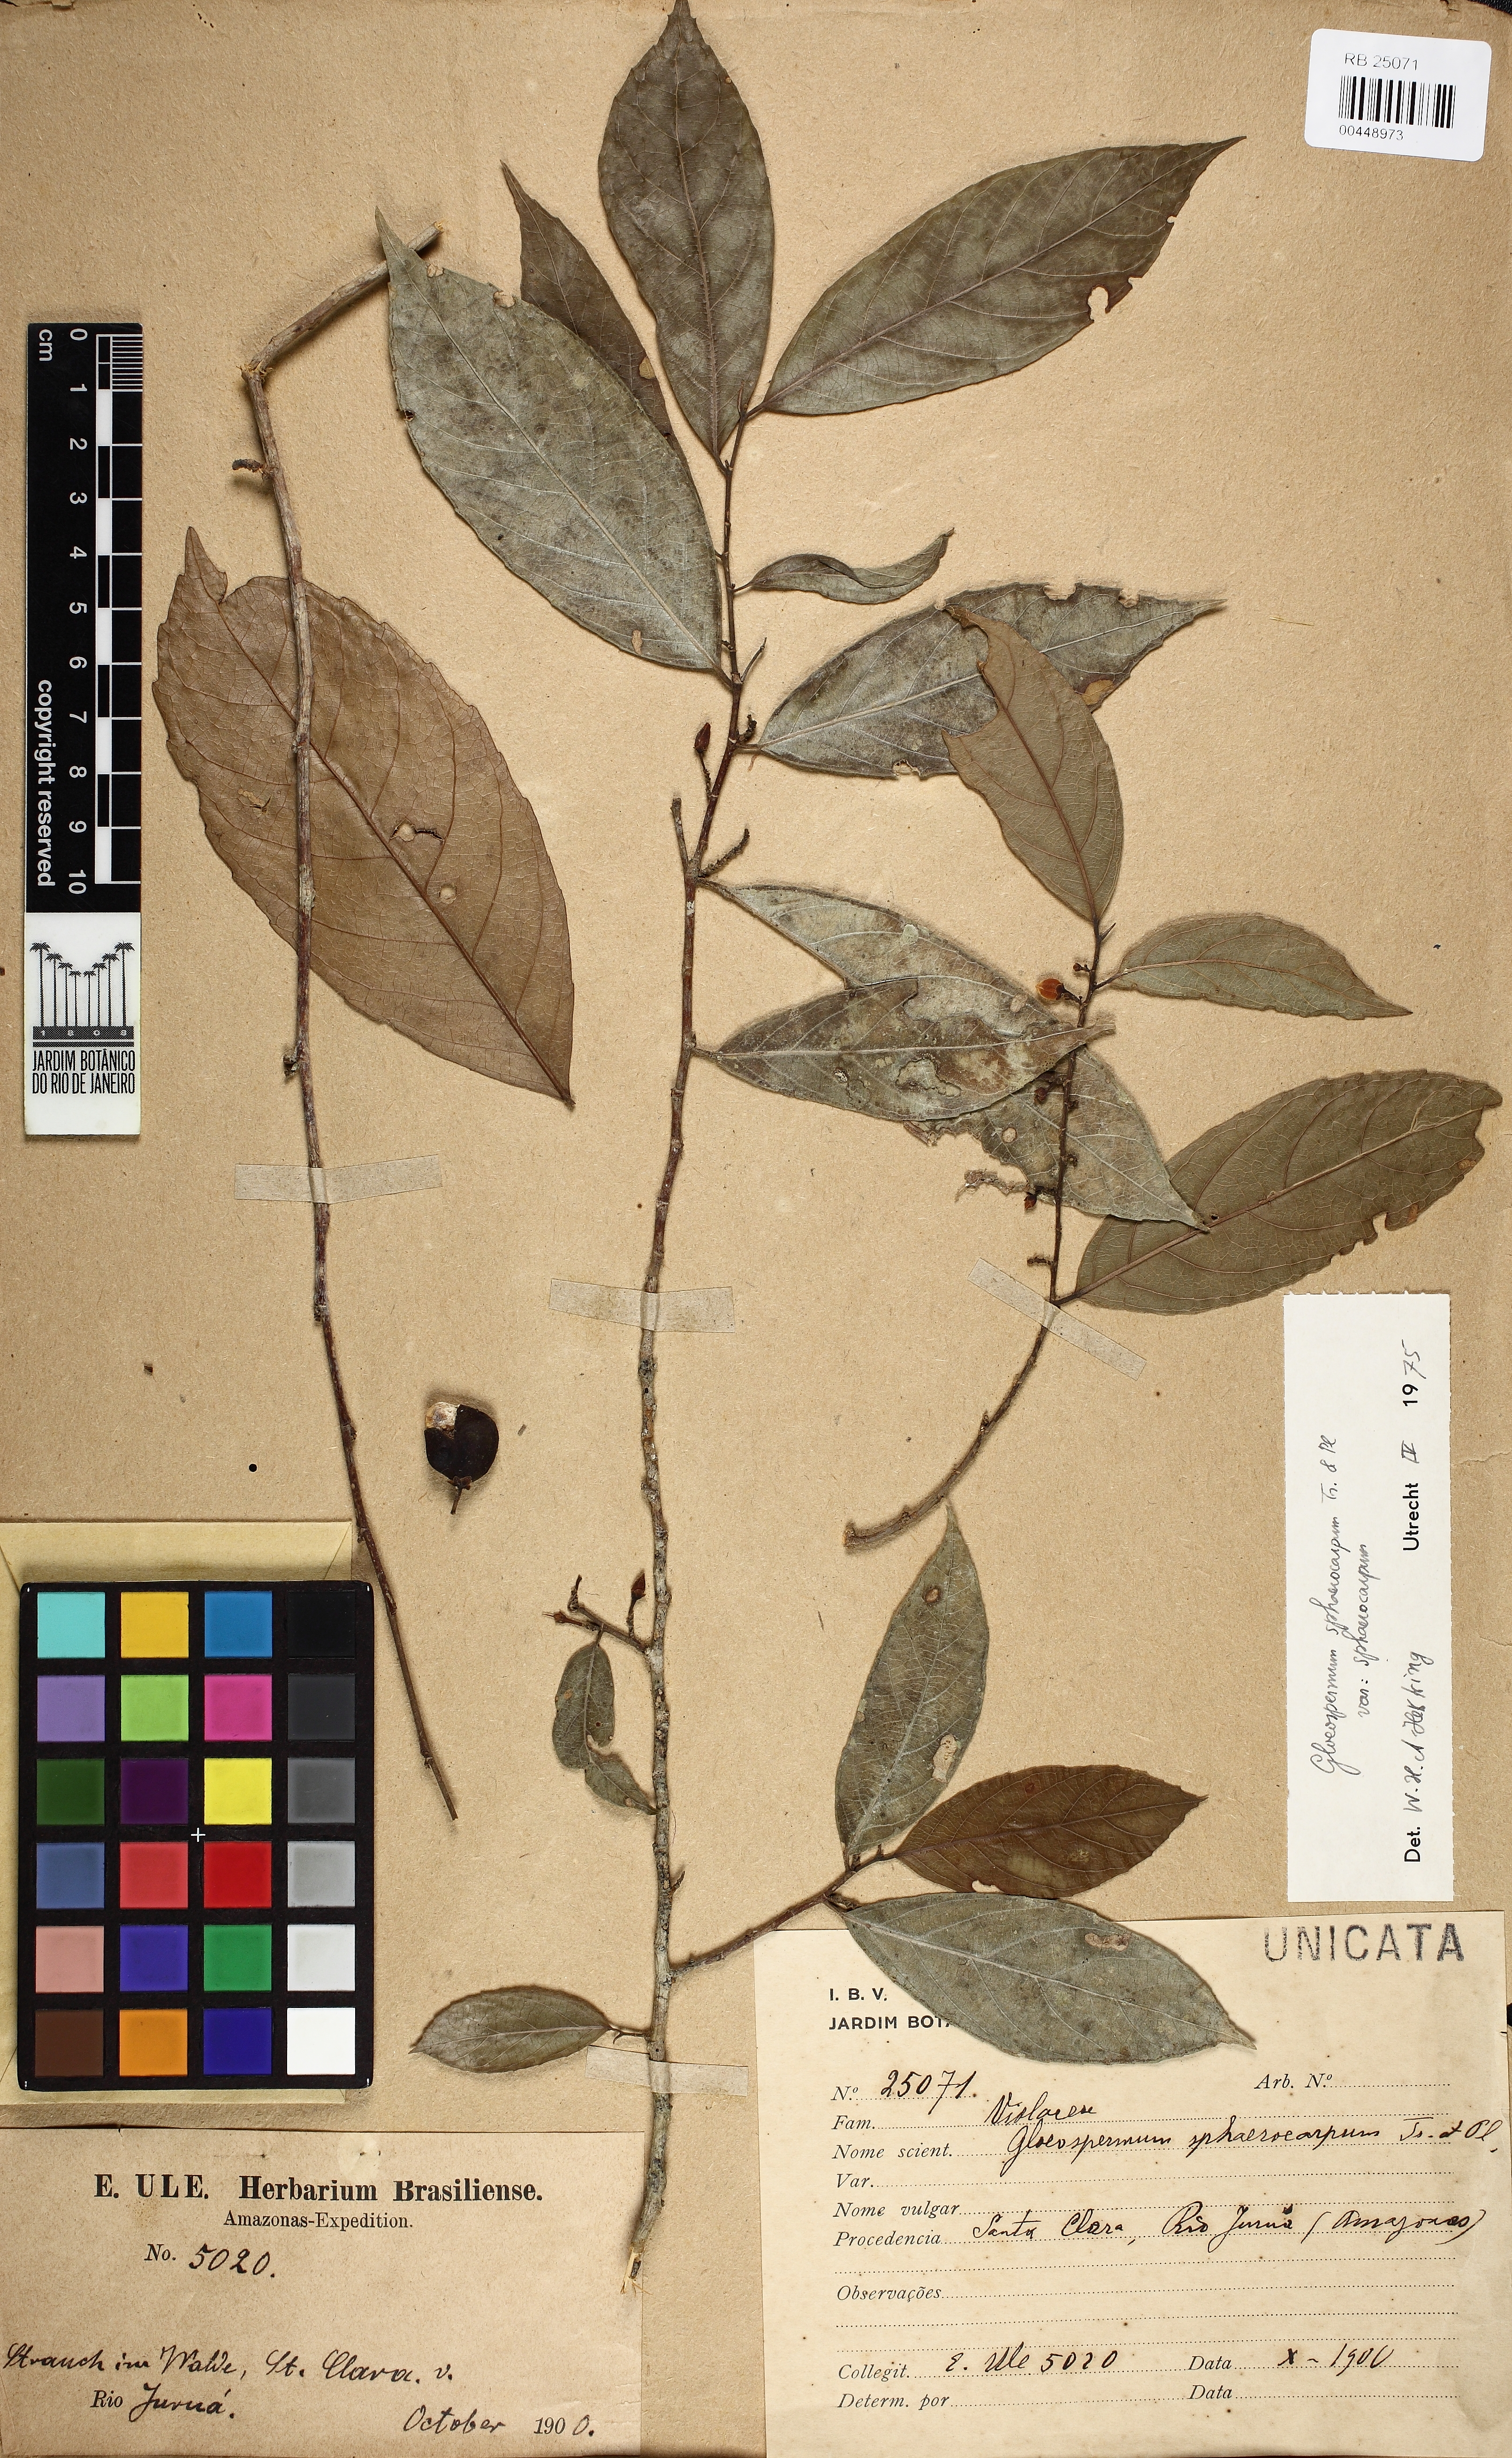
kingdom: Plantae
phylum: Tracheophyta
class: Magnoliopsida
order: Malpighiales
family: Violaceae
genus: Gloeospermum
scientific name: Gloeospermum sphaerocarpum
